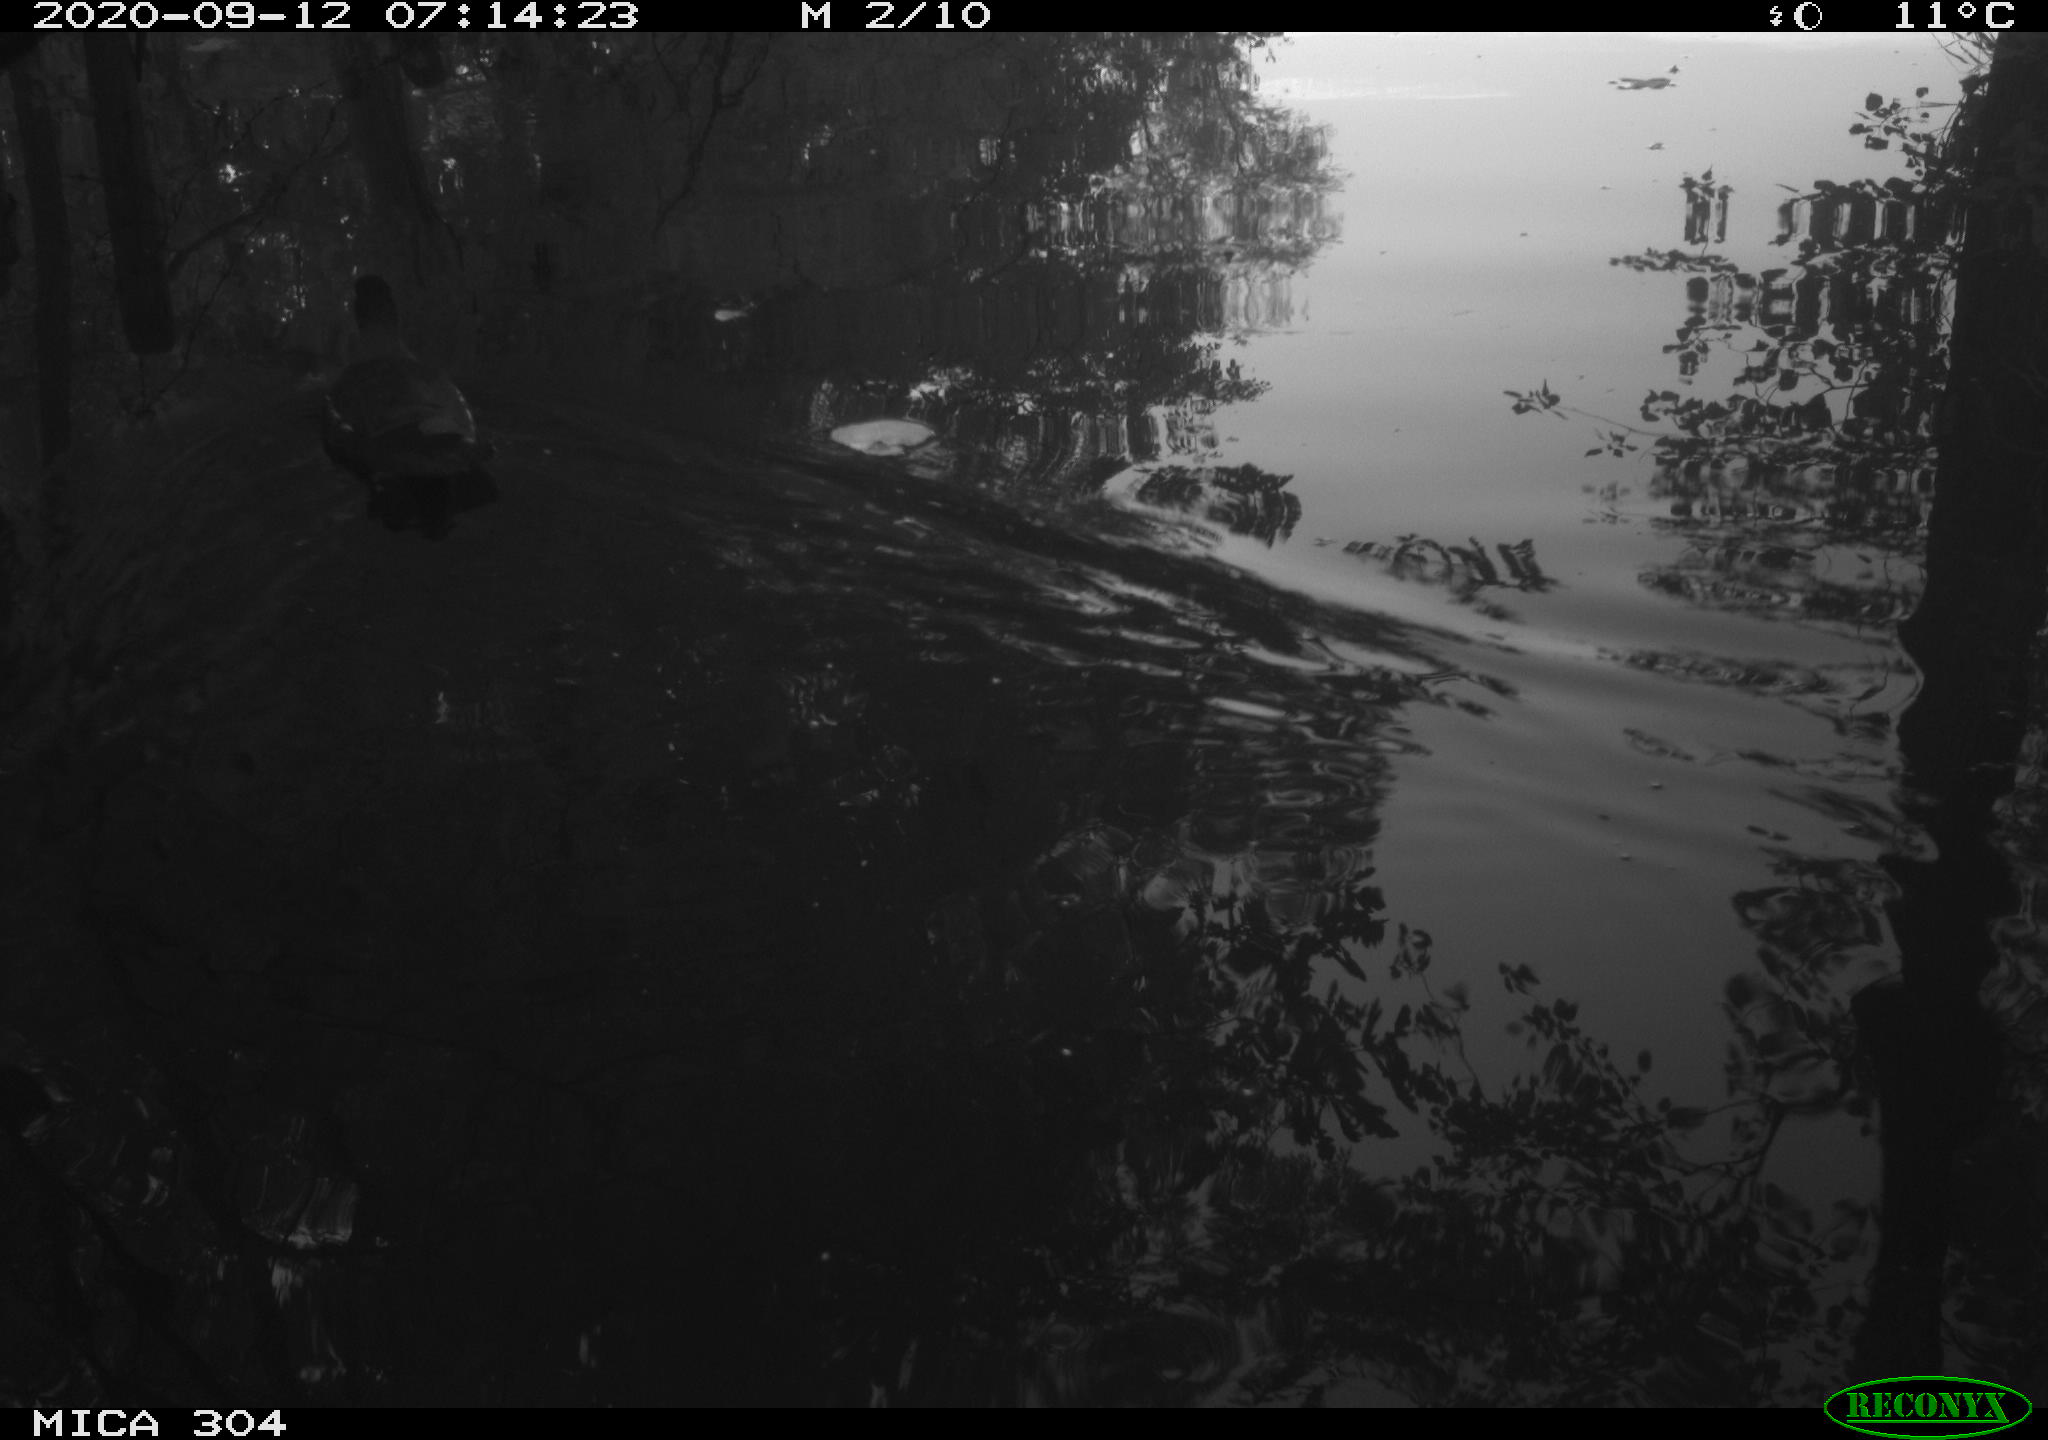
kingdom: Animalia
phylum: Chordata
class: Aves
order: Gruiformes
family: Rallidae
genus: Gallinula
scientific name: Gallinula chloropus
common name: Common moorhen
